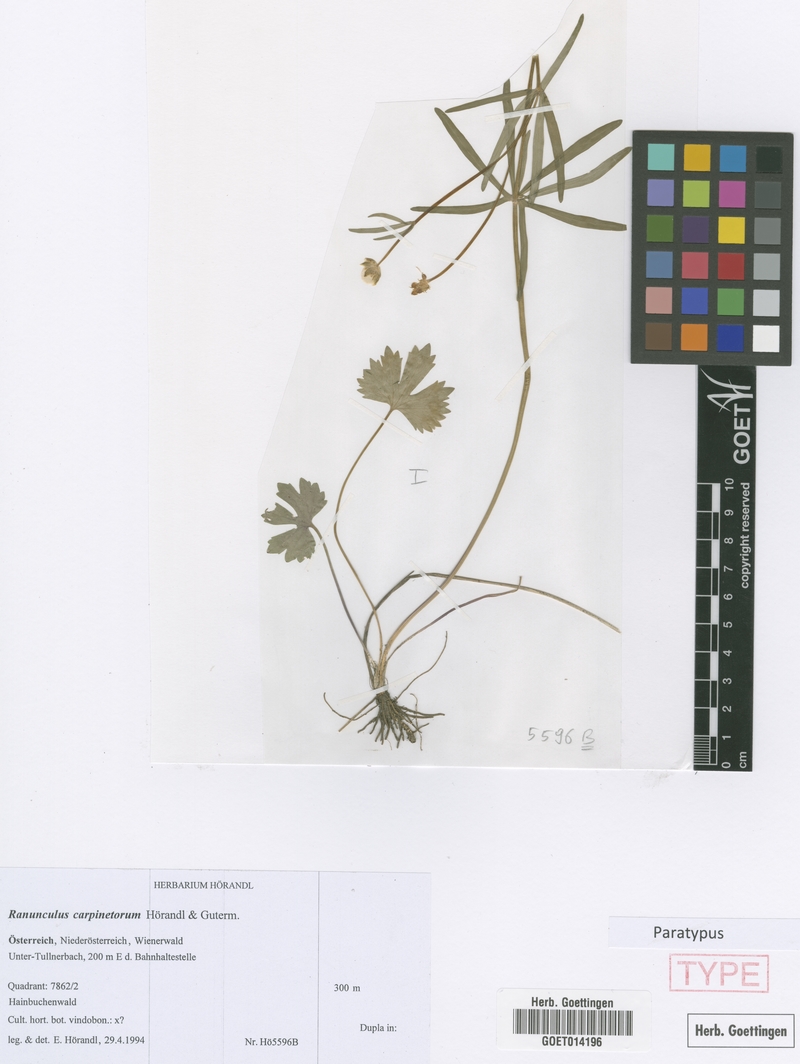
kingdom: Plantae
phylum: Tracheophyta
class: Magnoliopsida
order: Ranunculales
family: Ranunculaceae
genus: Ranunculus
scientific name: Ranunculus carpinetorum
